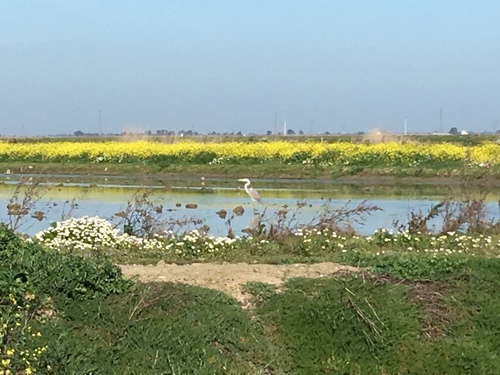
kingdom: Animalia
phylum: Chordata
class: Aves
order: Pelecaniformes
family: Ardeidae
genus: Ardea
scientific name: Ardea cinerea
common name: Grey heron
